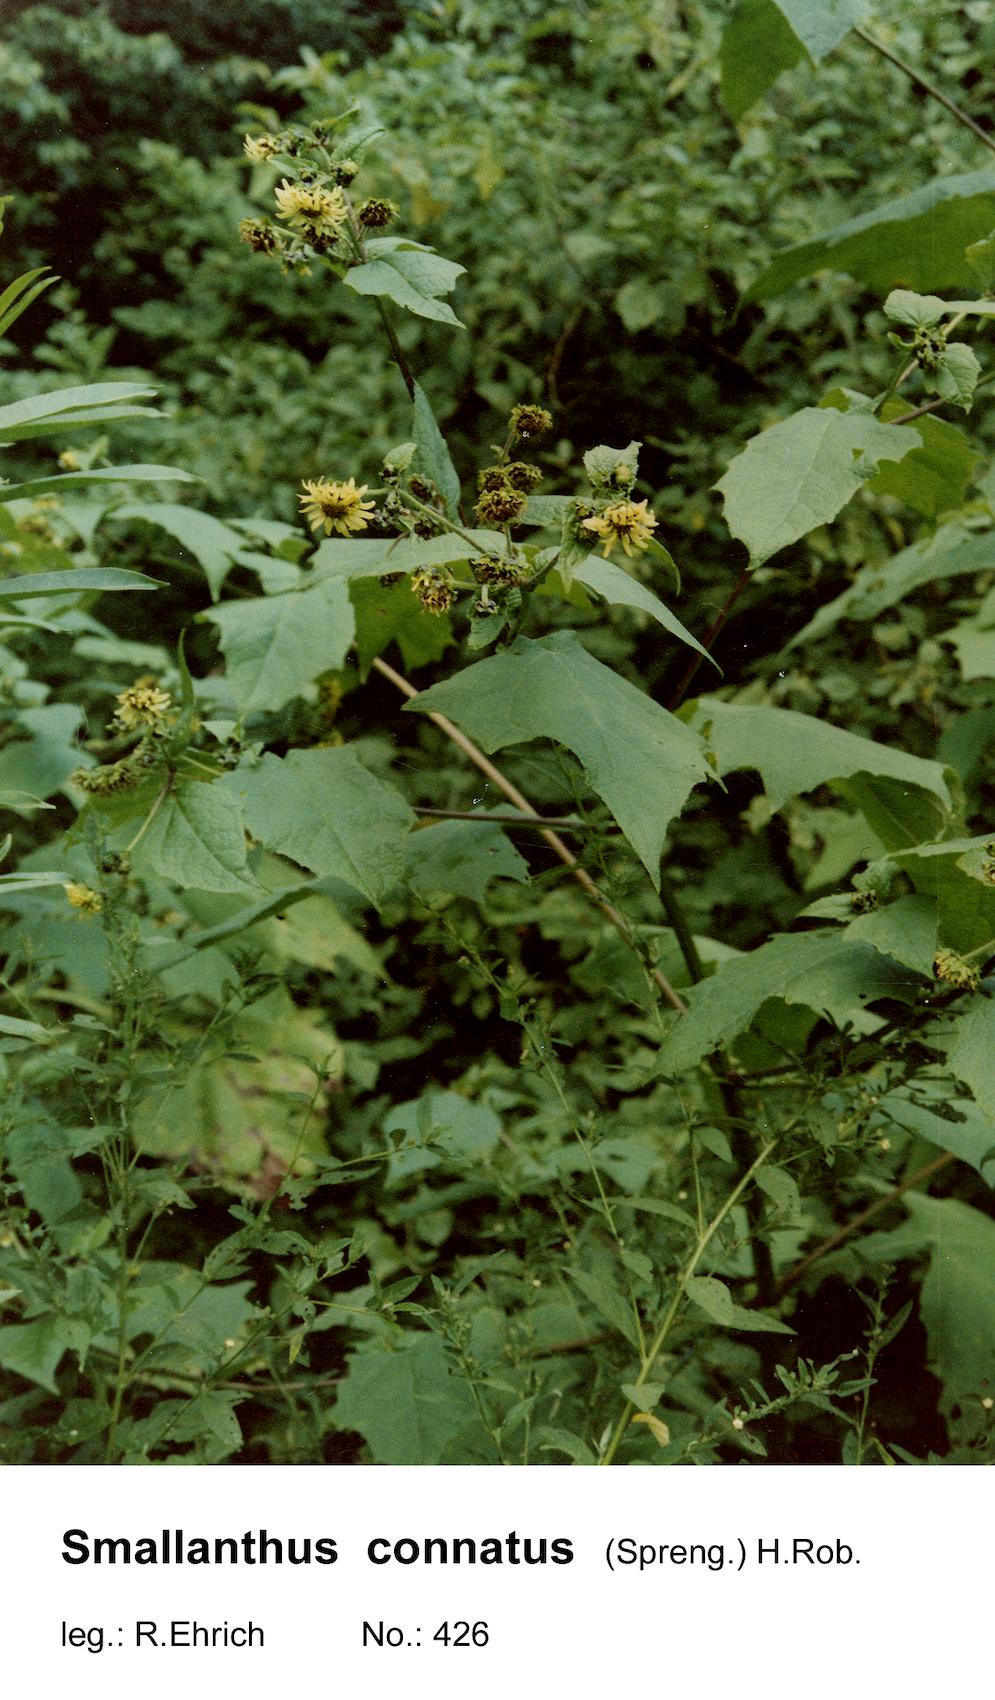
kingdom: Plantae
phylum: Tracheophyta
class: Magnoliopsida
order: Asterales
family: Asteraceae
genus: Smallanthus
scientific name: Smallanthus connatus
